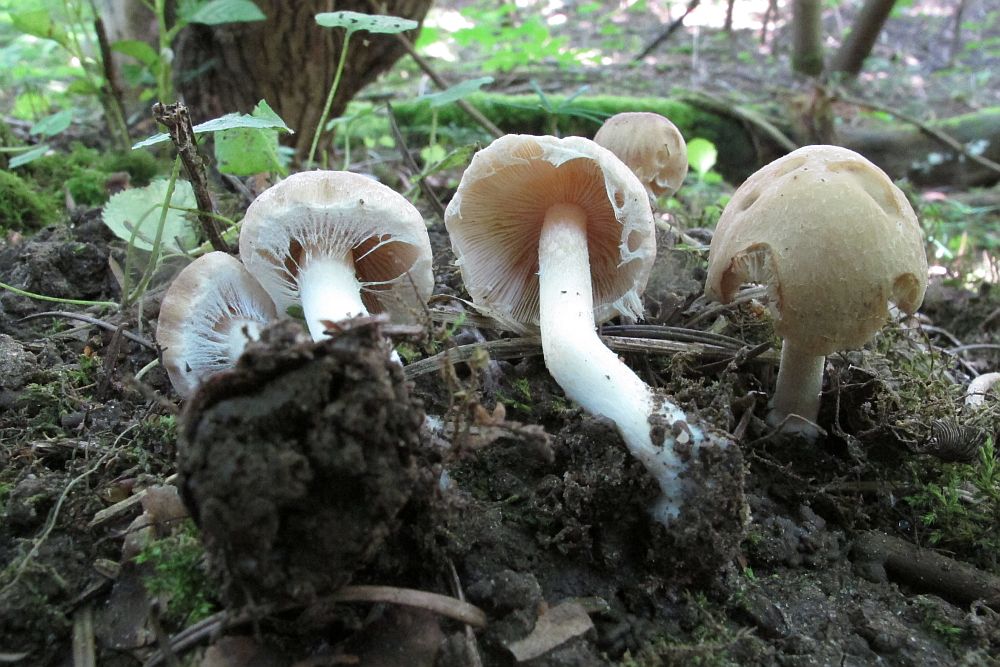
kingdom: Fungi
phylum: Basidiomycota
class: Agaricomycetes
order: Agaricales
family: Psathyrellaceae
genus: Candolleomyces
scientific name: Candolleomyces candolleanus
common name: Candolles mørkhat
